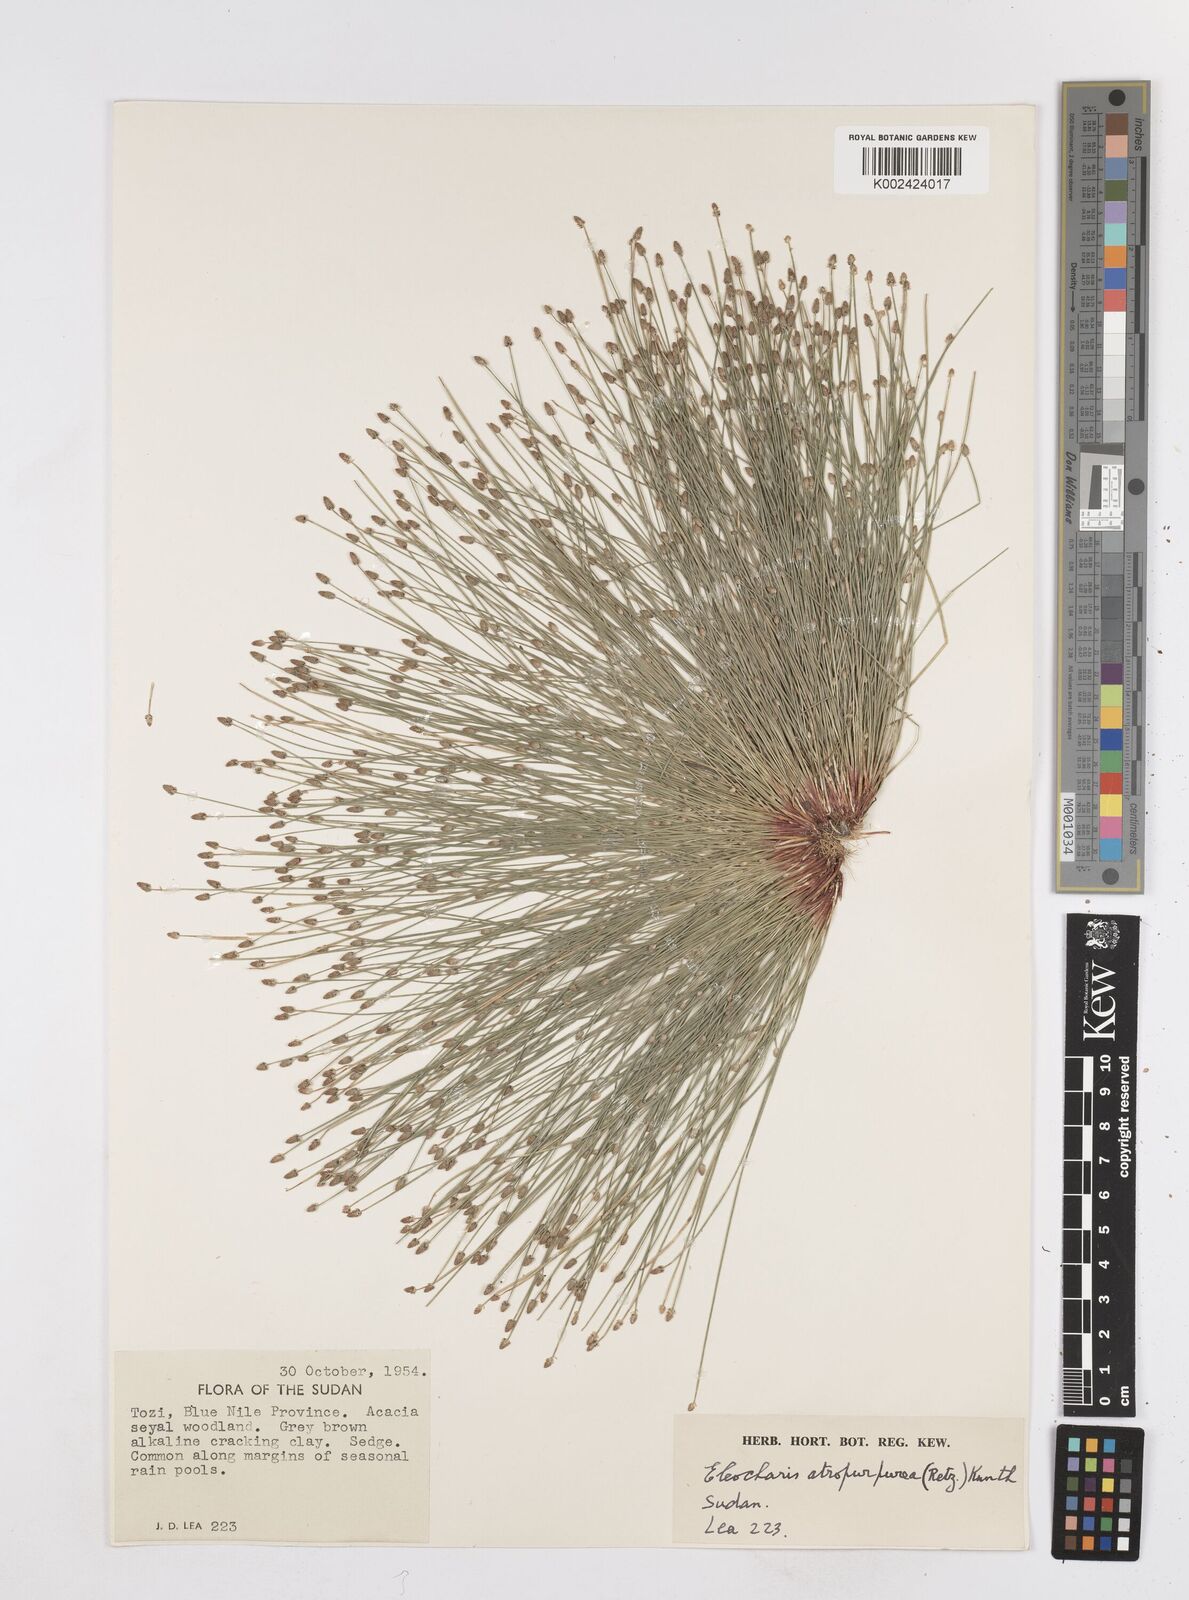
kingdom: Plantae
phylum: Tracheophyta
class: Liliopsida
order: Poales
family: Cyperaceae
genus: Eleocharis
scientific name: Eleocharis atropurpurea
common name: Purple spikerush
